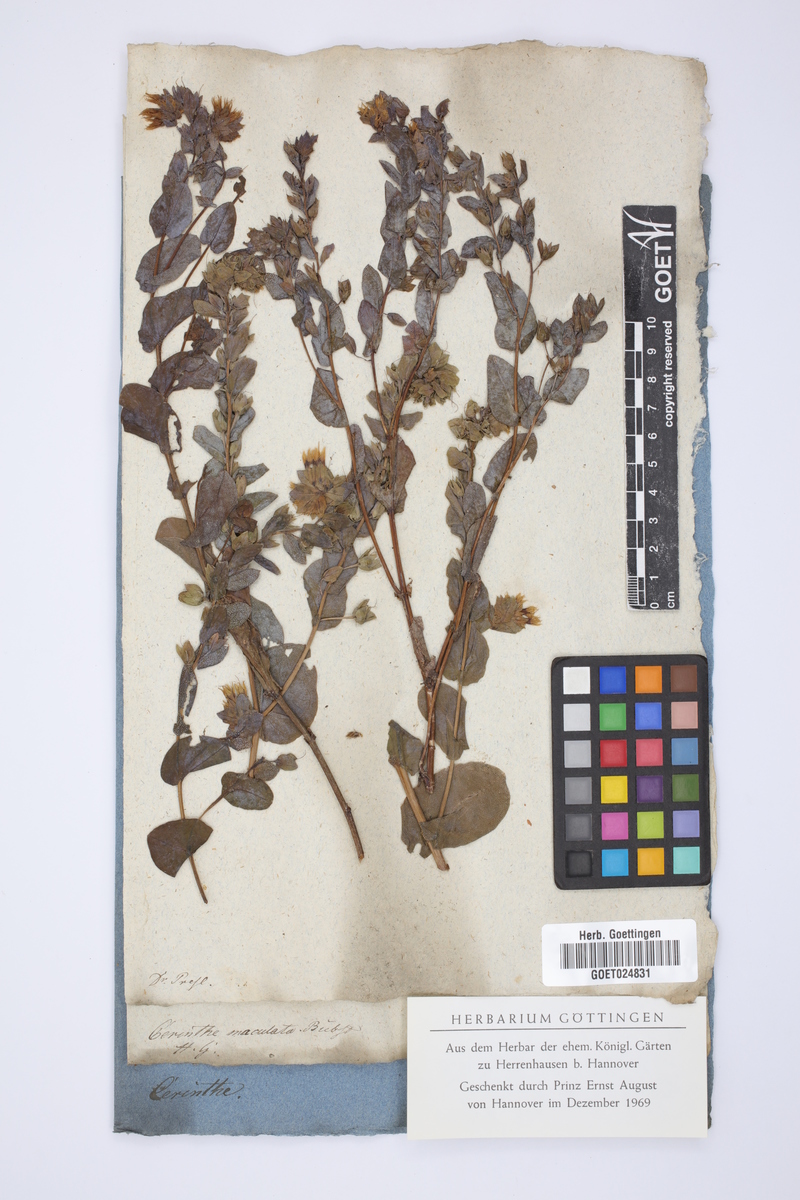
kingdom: Plantae
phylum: Tracheophyta
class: Magnoliopsida
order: Boraginales
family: Boraginaceae
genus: Cerinthe
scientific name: Cerinthe minor
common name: Lesser honeywort
